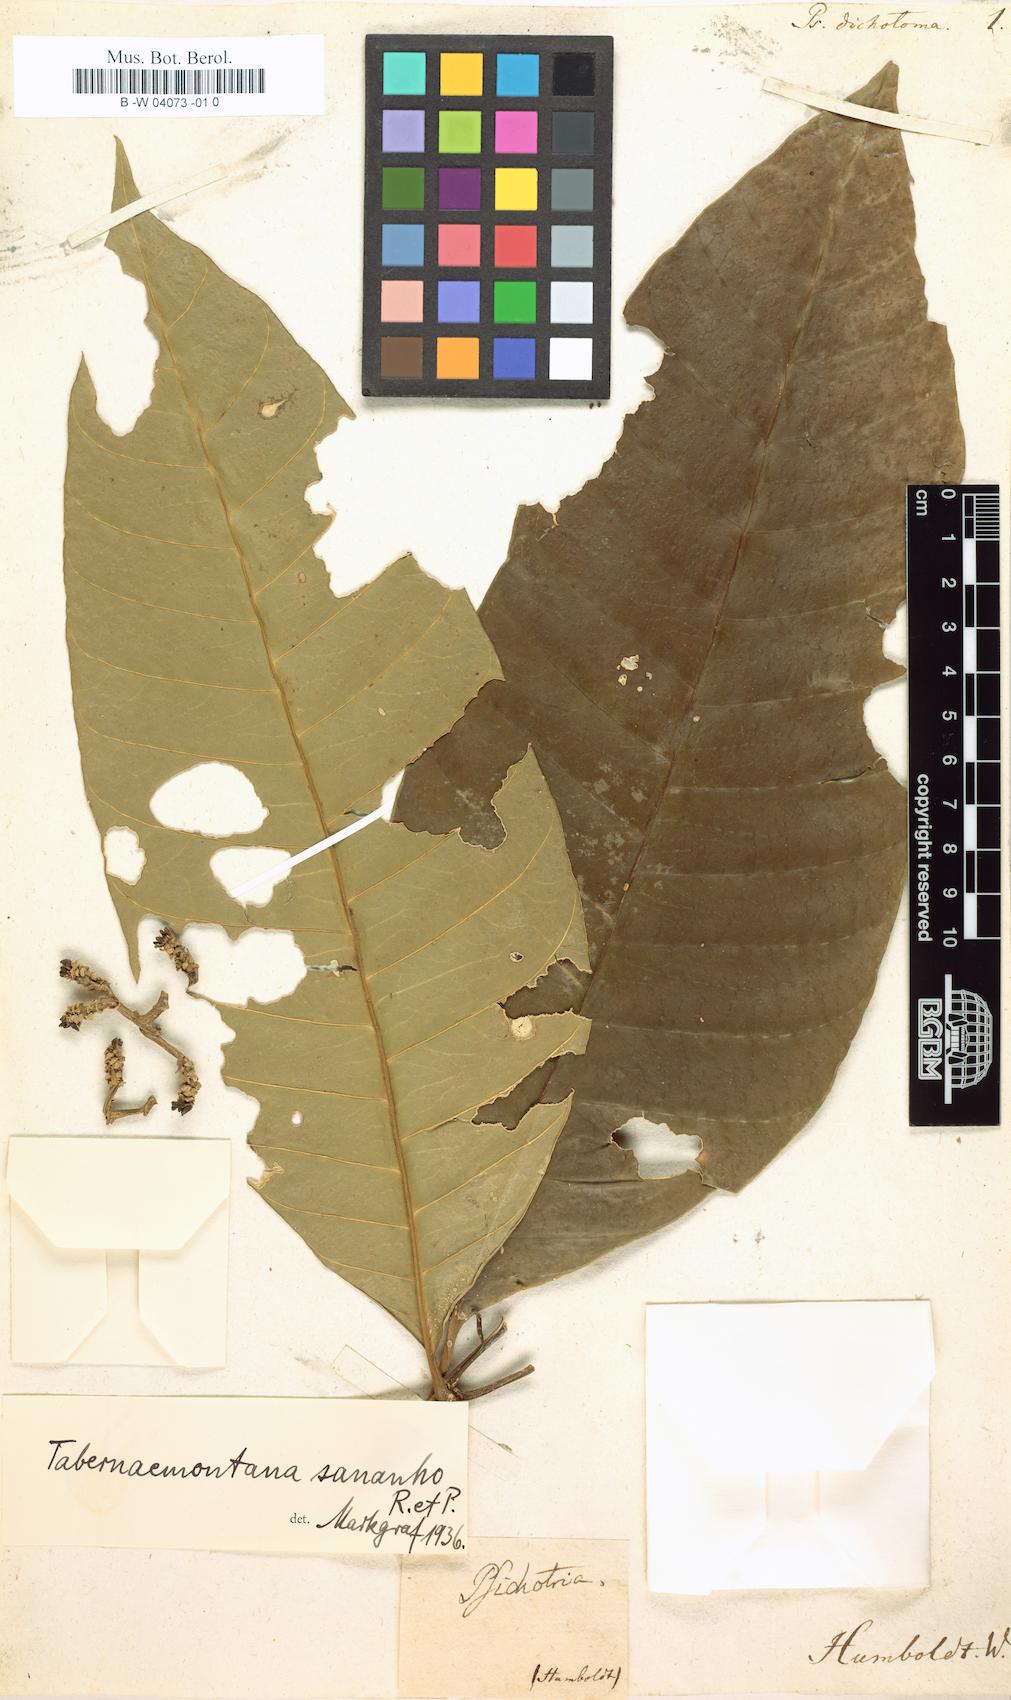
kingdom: Plantae
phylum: Tracheophyta
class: Magnoliopsida
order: Gentianales
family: Rubiaceae
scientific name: Rubiaceae
